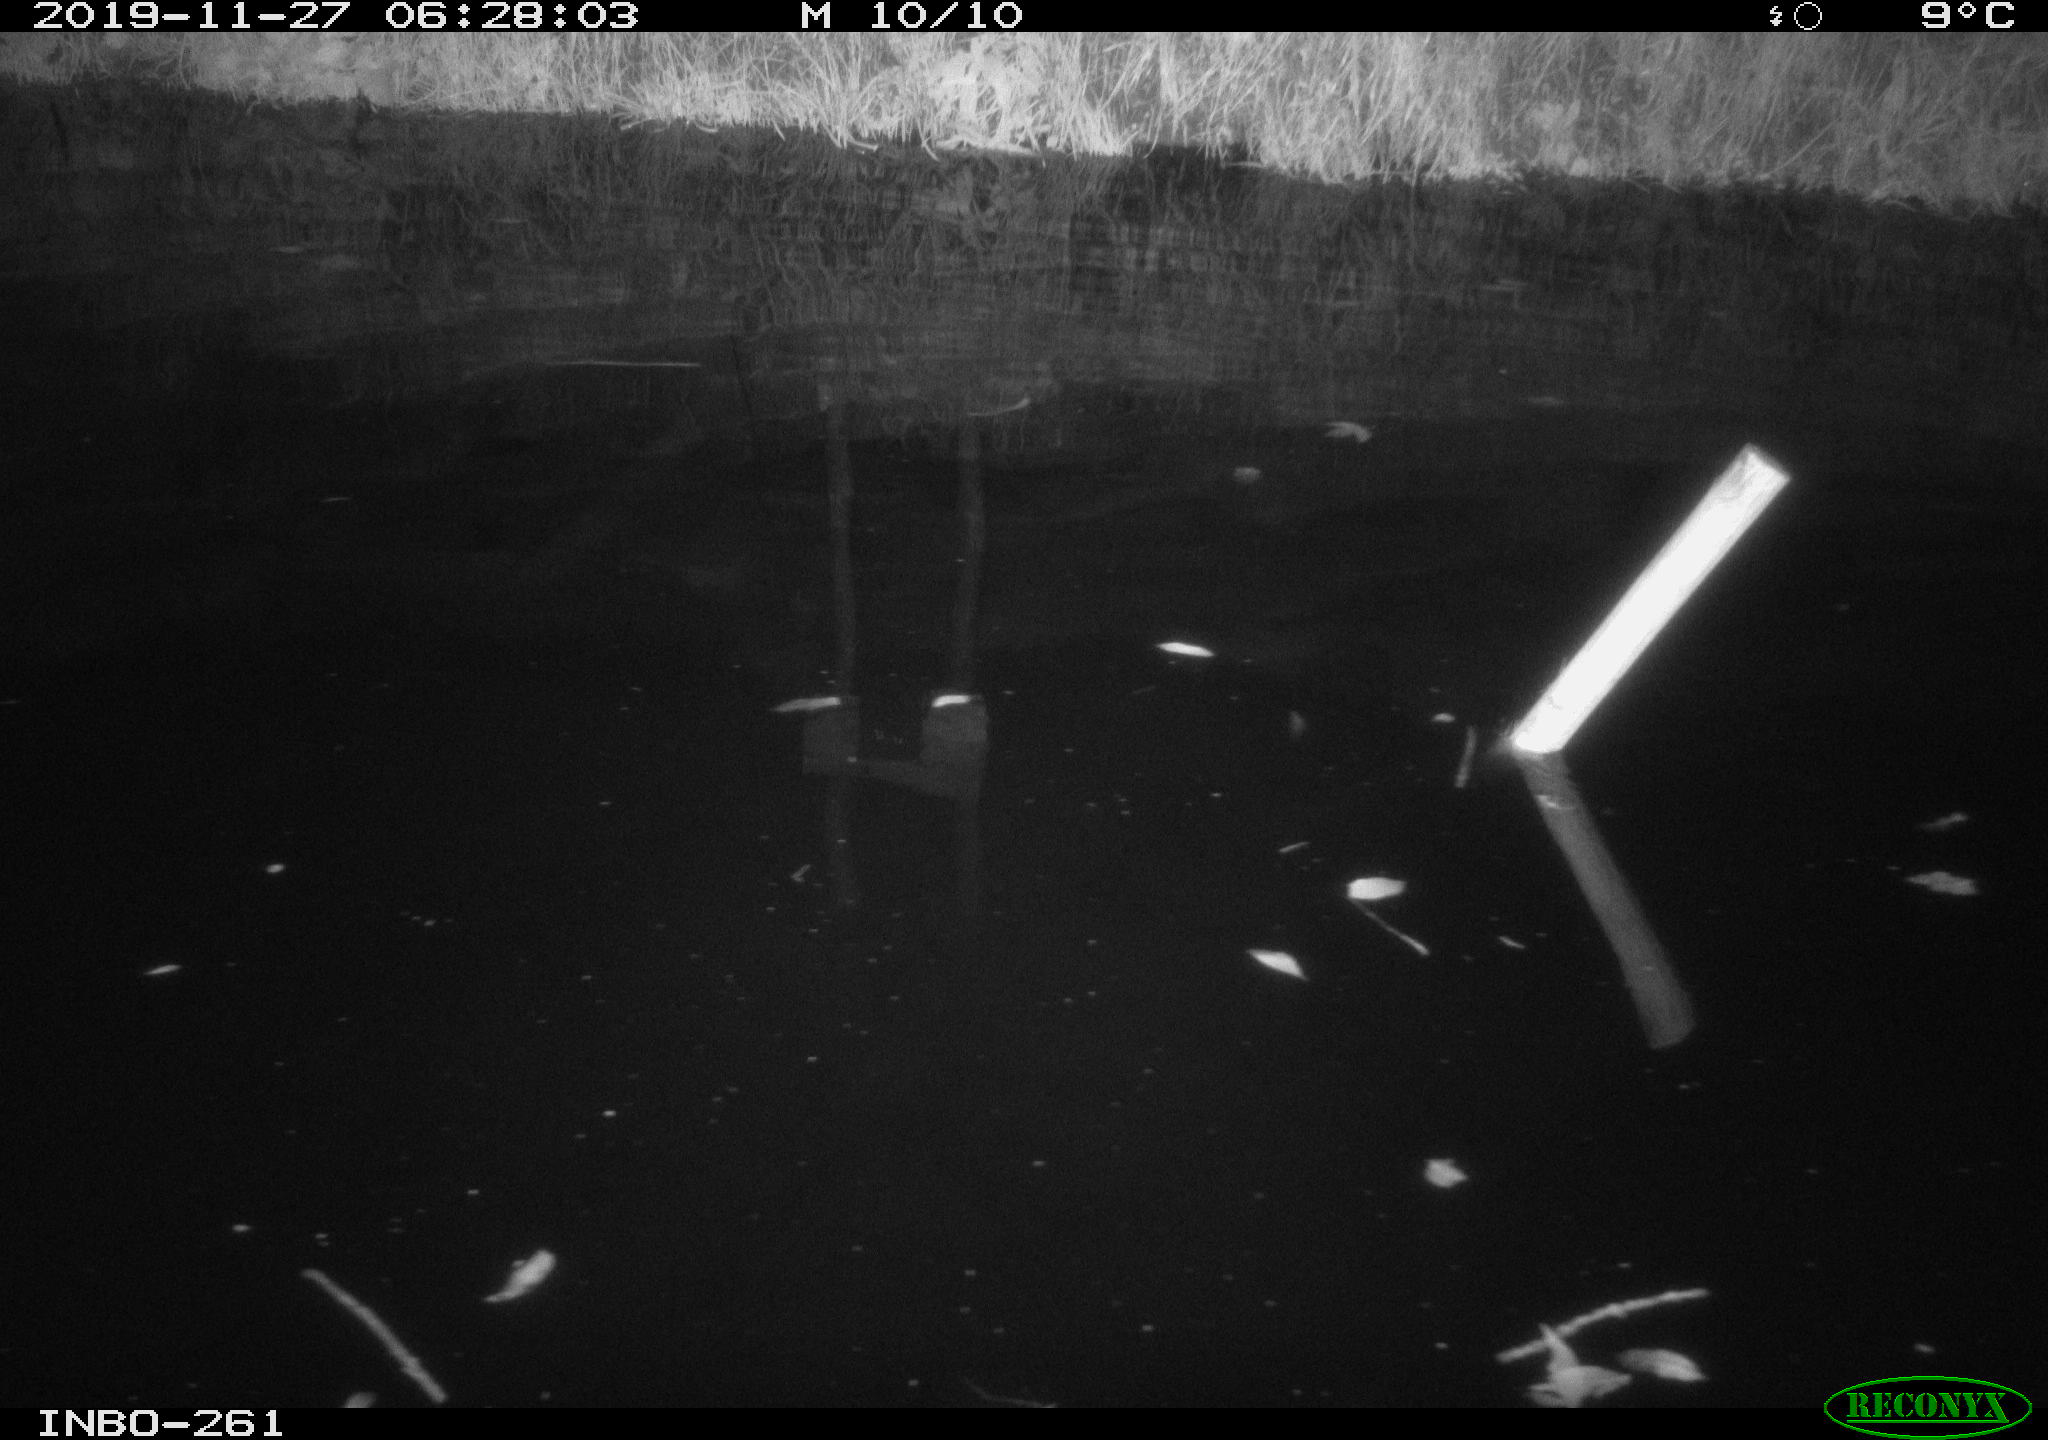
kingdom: Animalia
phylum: Chordata
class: Aves
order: Anseriformes
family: Anatidae
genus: Anas
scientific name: Anas platyrhynchos
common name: Mallard
